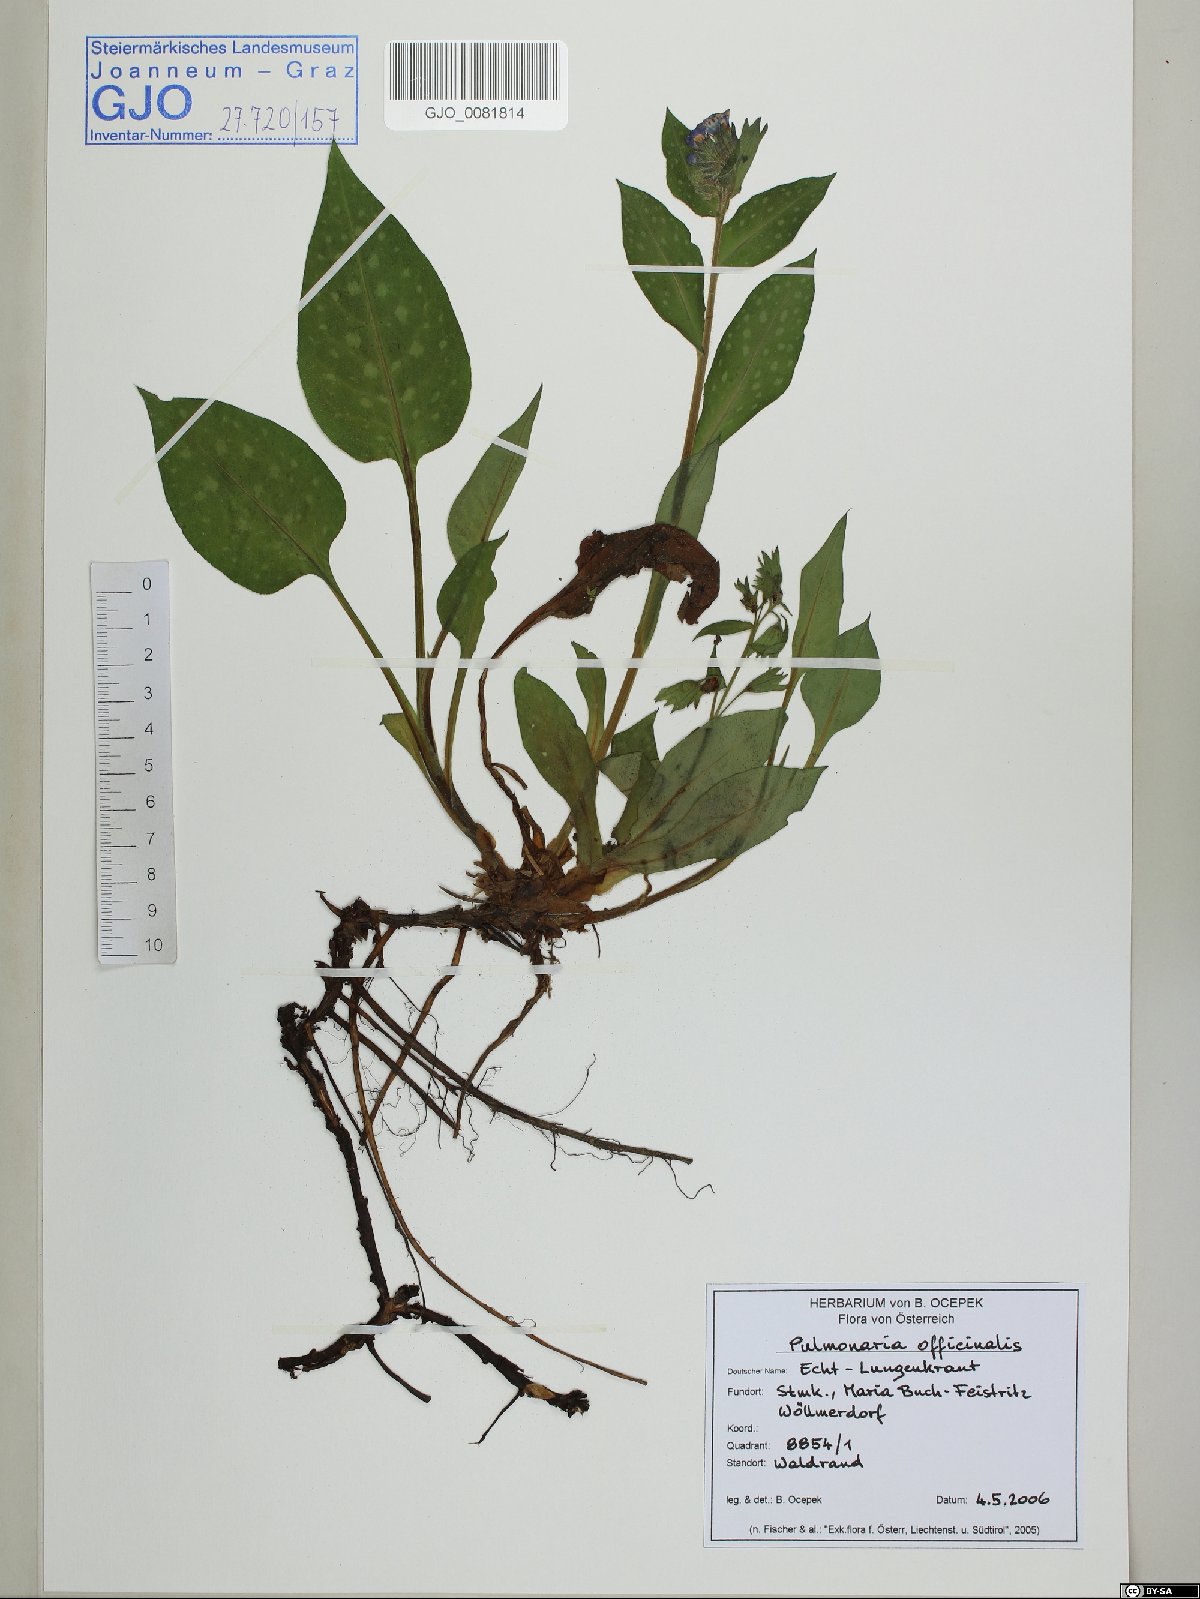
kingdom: Plantae
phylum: Tracheophyta
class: Magnoliopsida
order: Boraginales
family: Boraginaceae
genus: Pulmonaria
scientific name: Pulmonaria officinalis
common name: Lungwort
